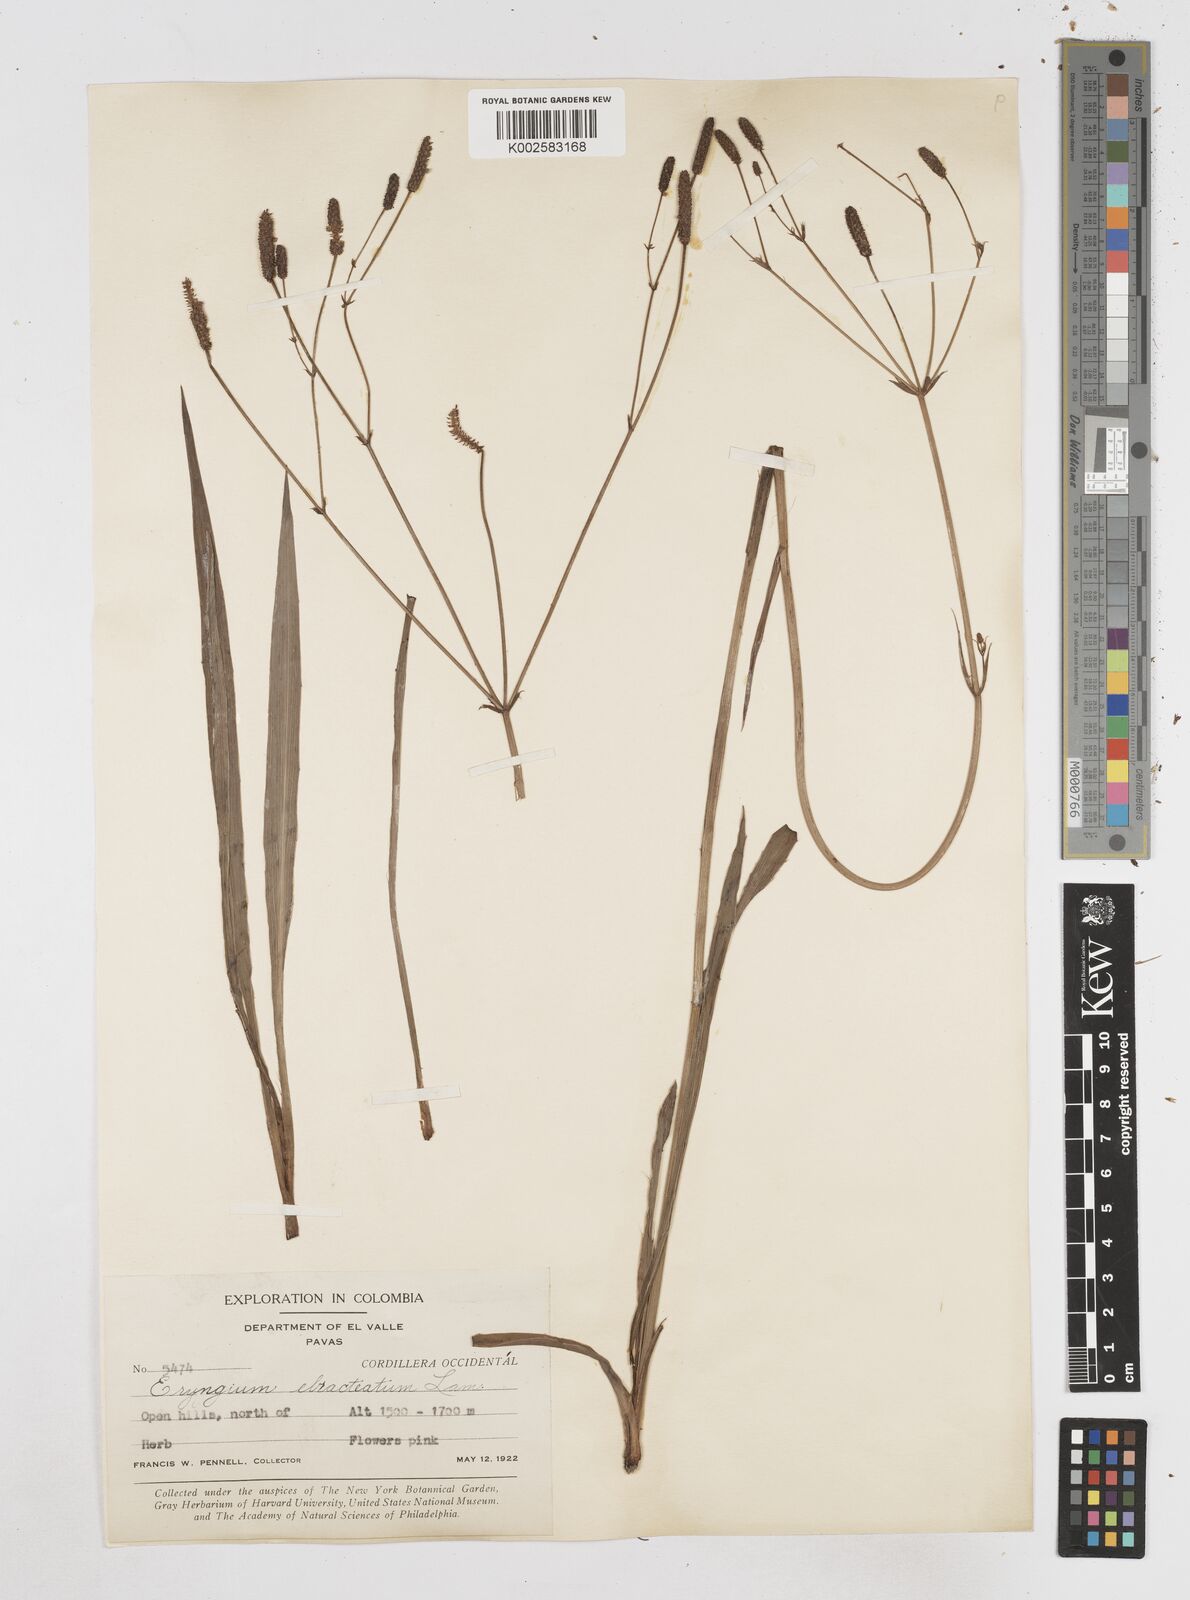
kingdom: Plantae
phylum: Tracheophyta
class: Magnoliopsida
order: Apiales
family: Apiaceae
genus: Eryngium
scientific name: Eryngium ebracteatum
